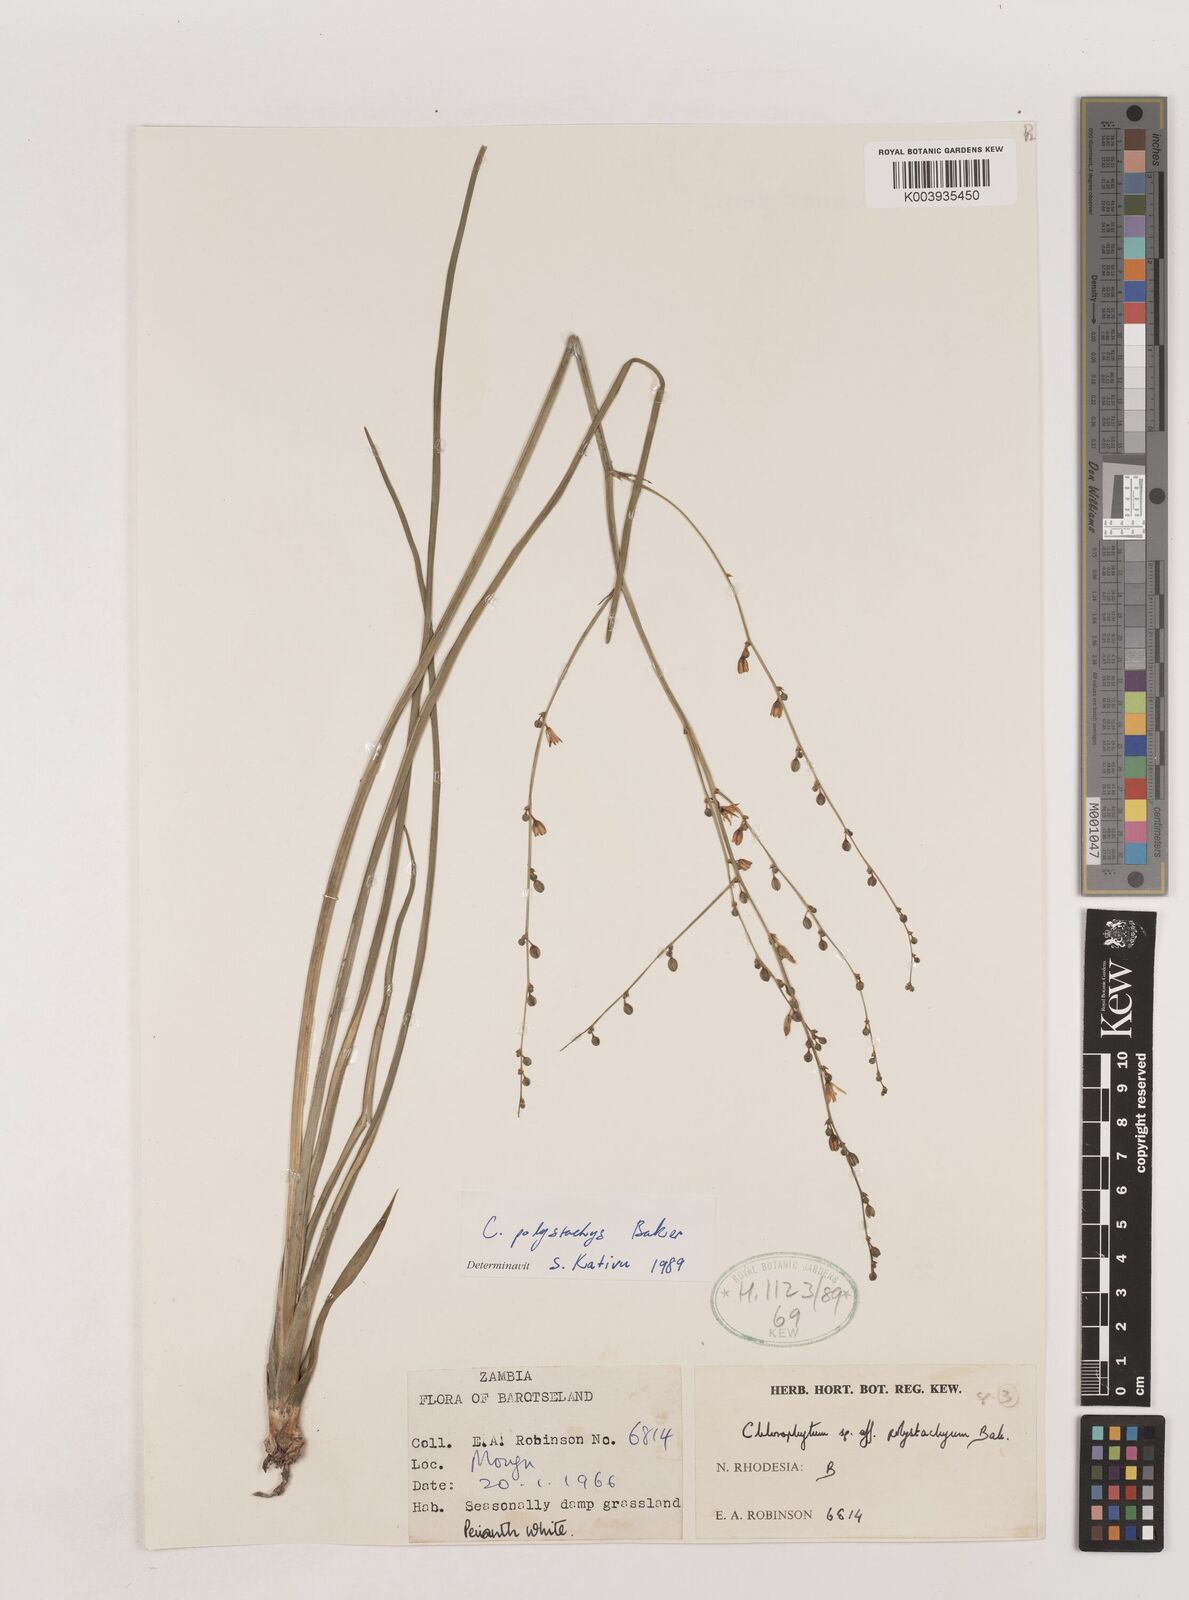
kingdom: Plantae
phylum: Tracheophyta
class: Liliopsida
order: Asparagales
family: Asparagaceae
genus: Chlorophytum
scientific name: Chlorophytum polystachys
